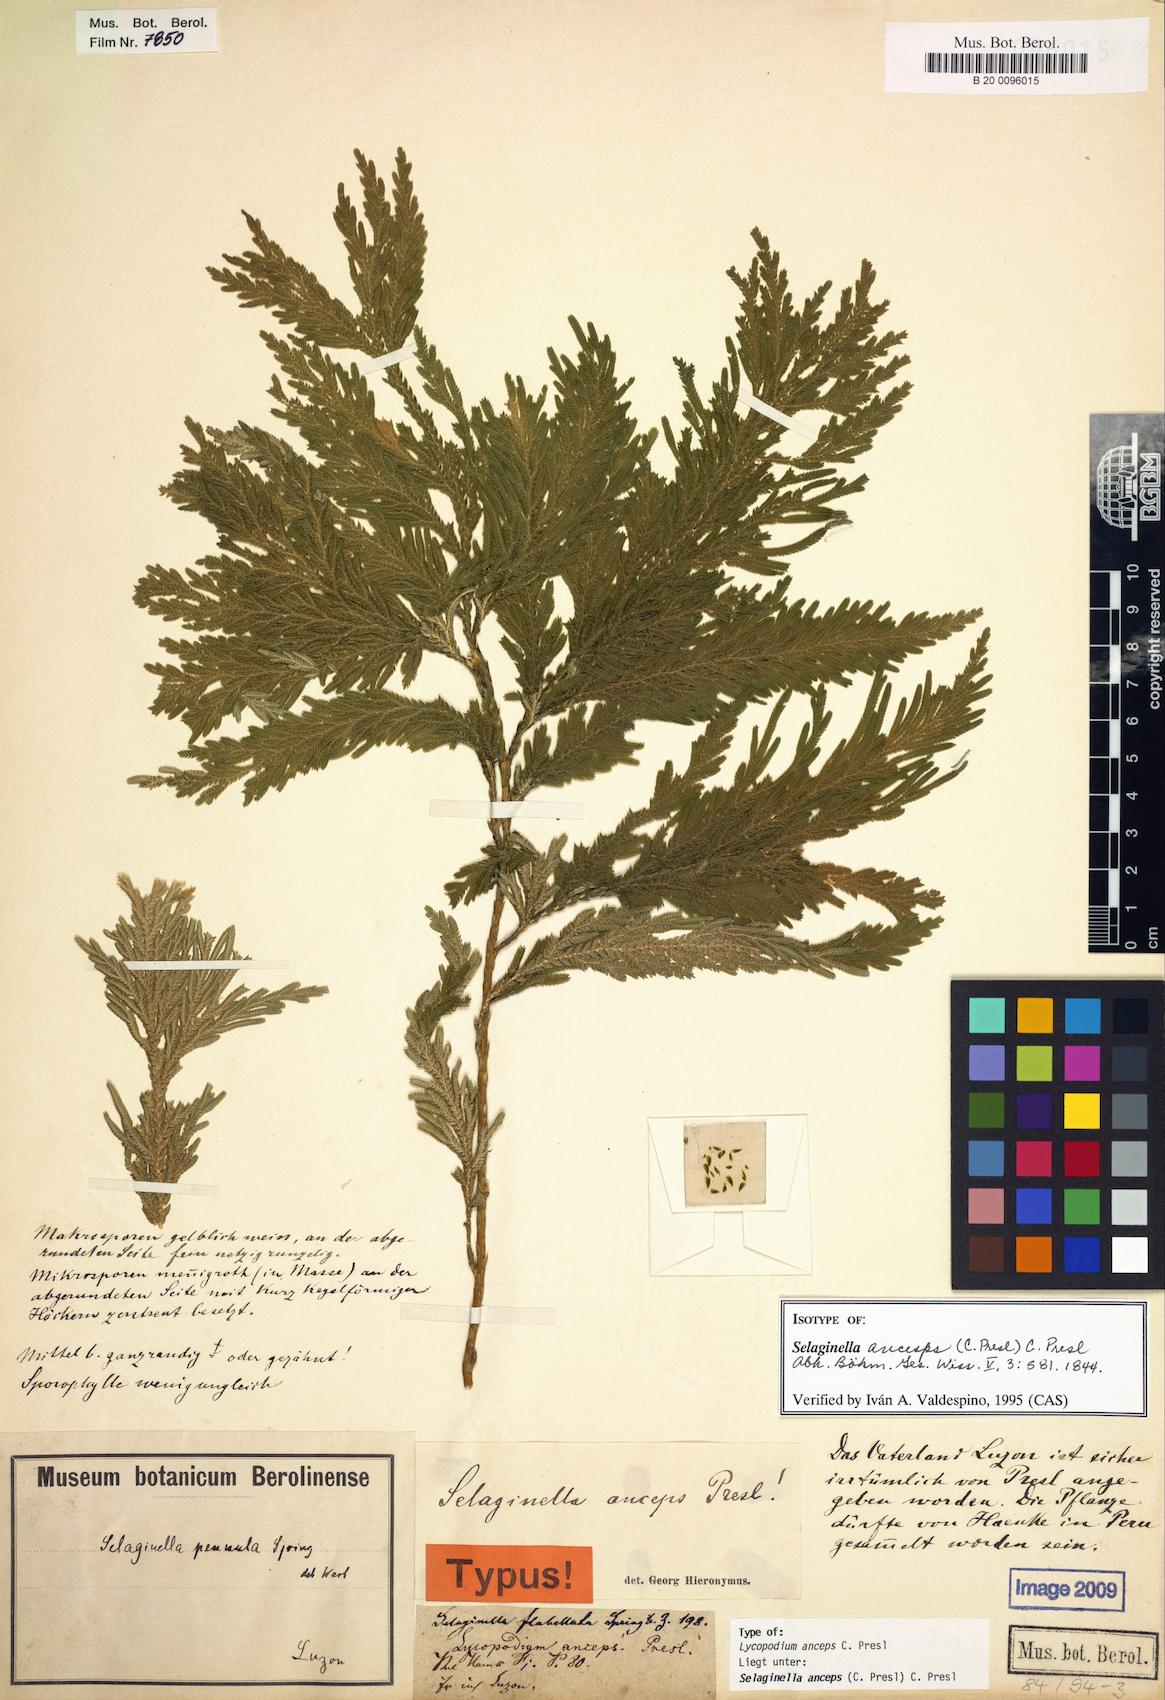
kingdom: Plantae
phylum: Tracheophyta
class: Lycopodiopsida
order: Selaginellales
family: Selaginellaceae
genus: Selaginella
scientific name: Selaginella anceps
